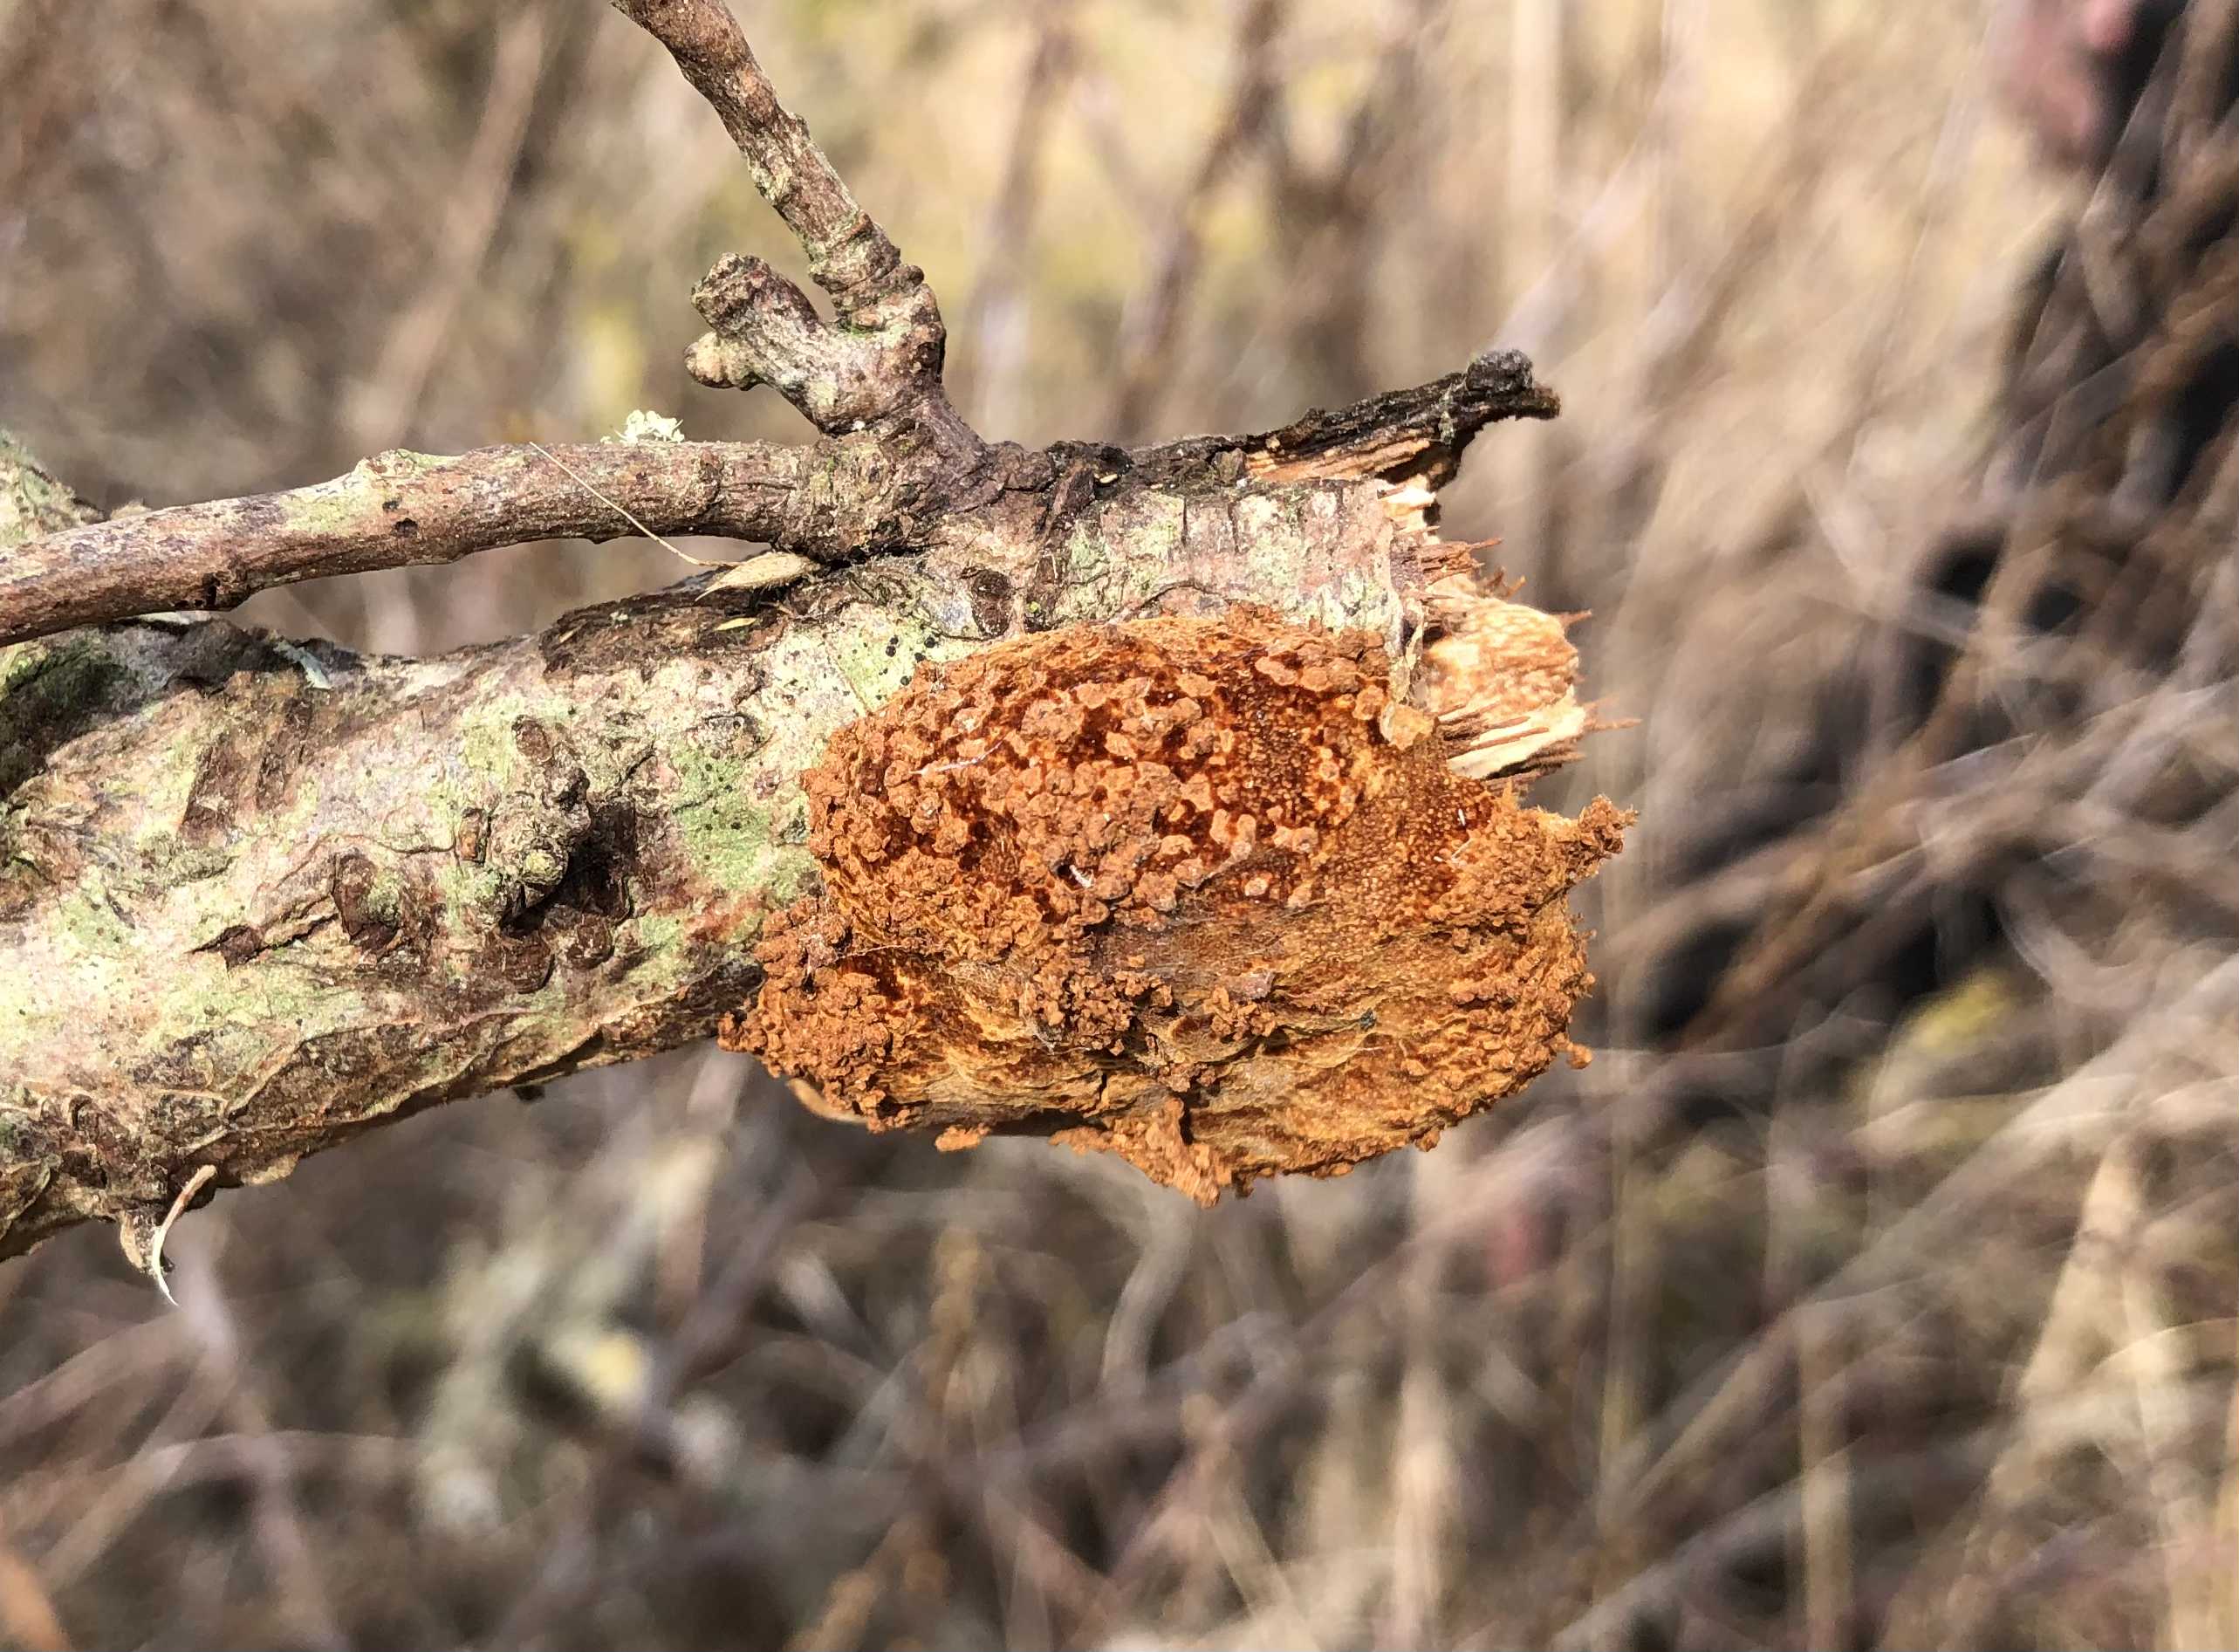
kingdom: Fungi
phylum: Basidiomycota
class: Agaricomycetes
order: Hymenochaetales
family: Hymenochaetaceae
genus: Fomitiporia
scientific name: Fomitiporia hippophaeicola
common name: havtorn-ildporesvamp
